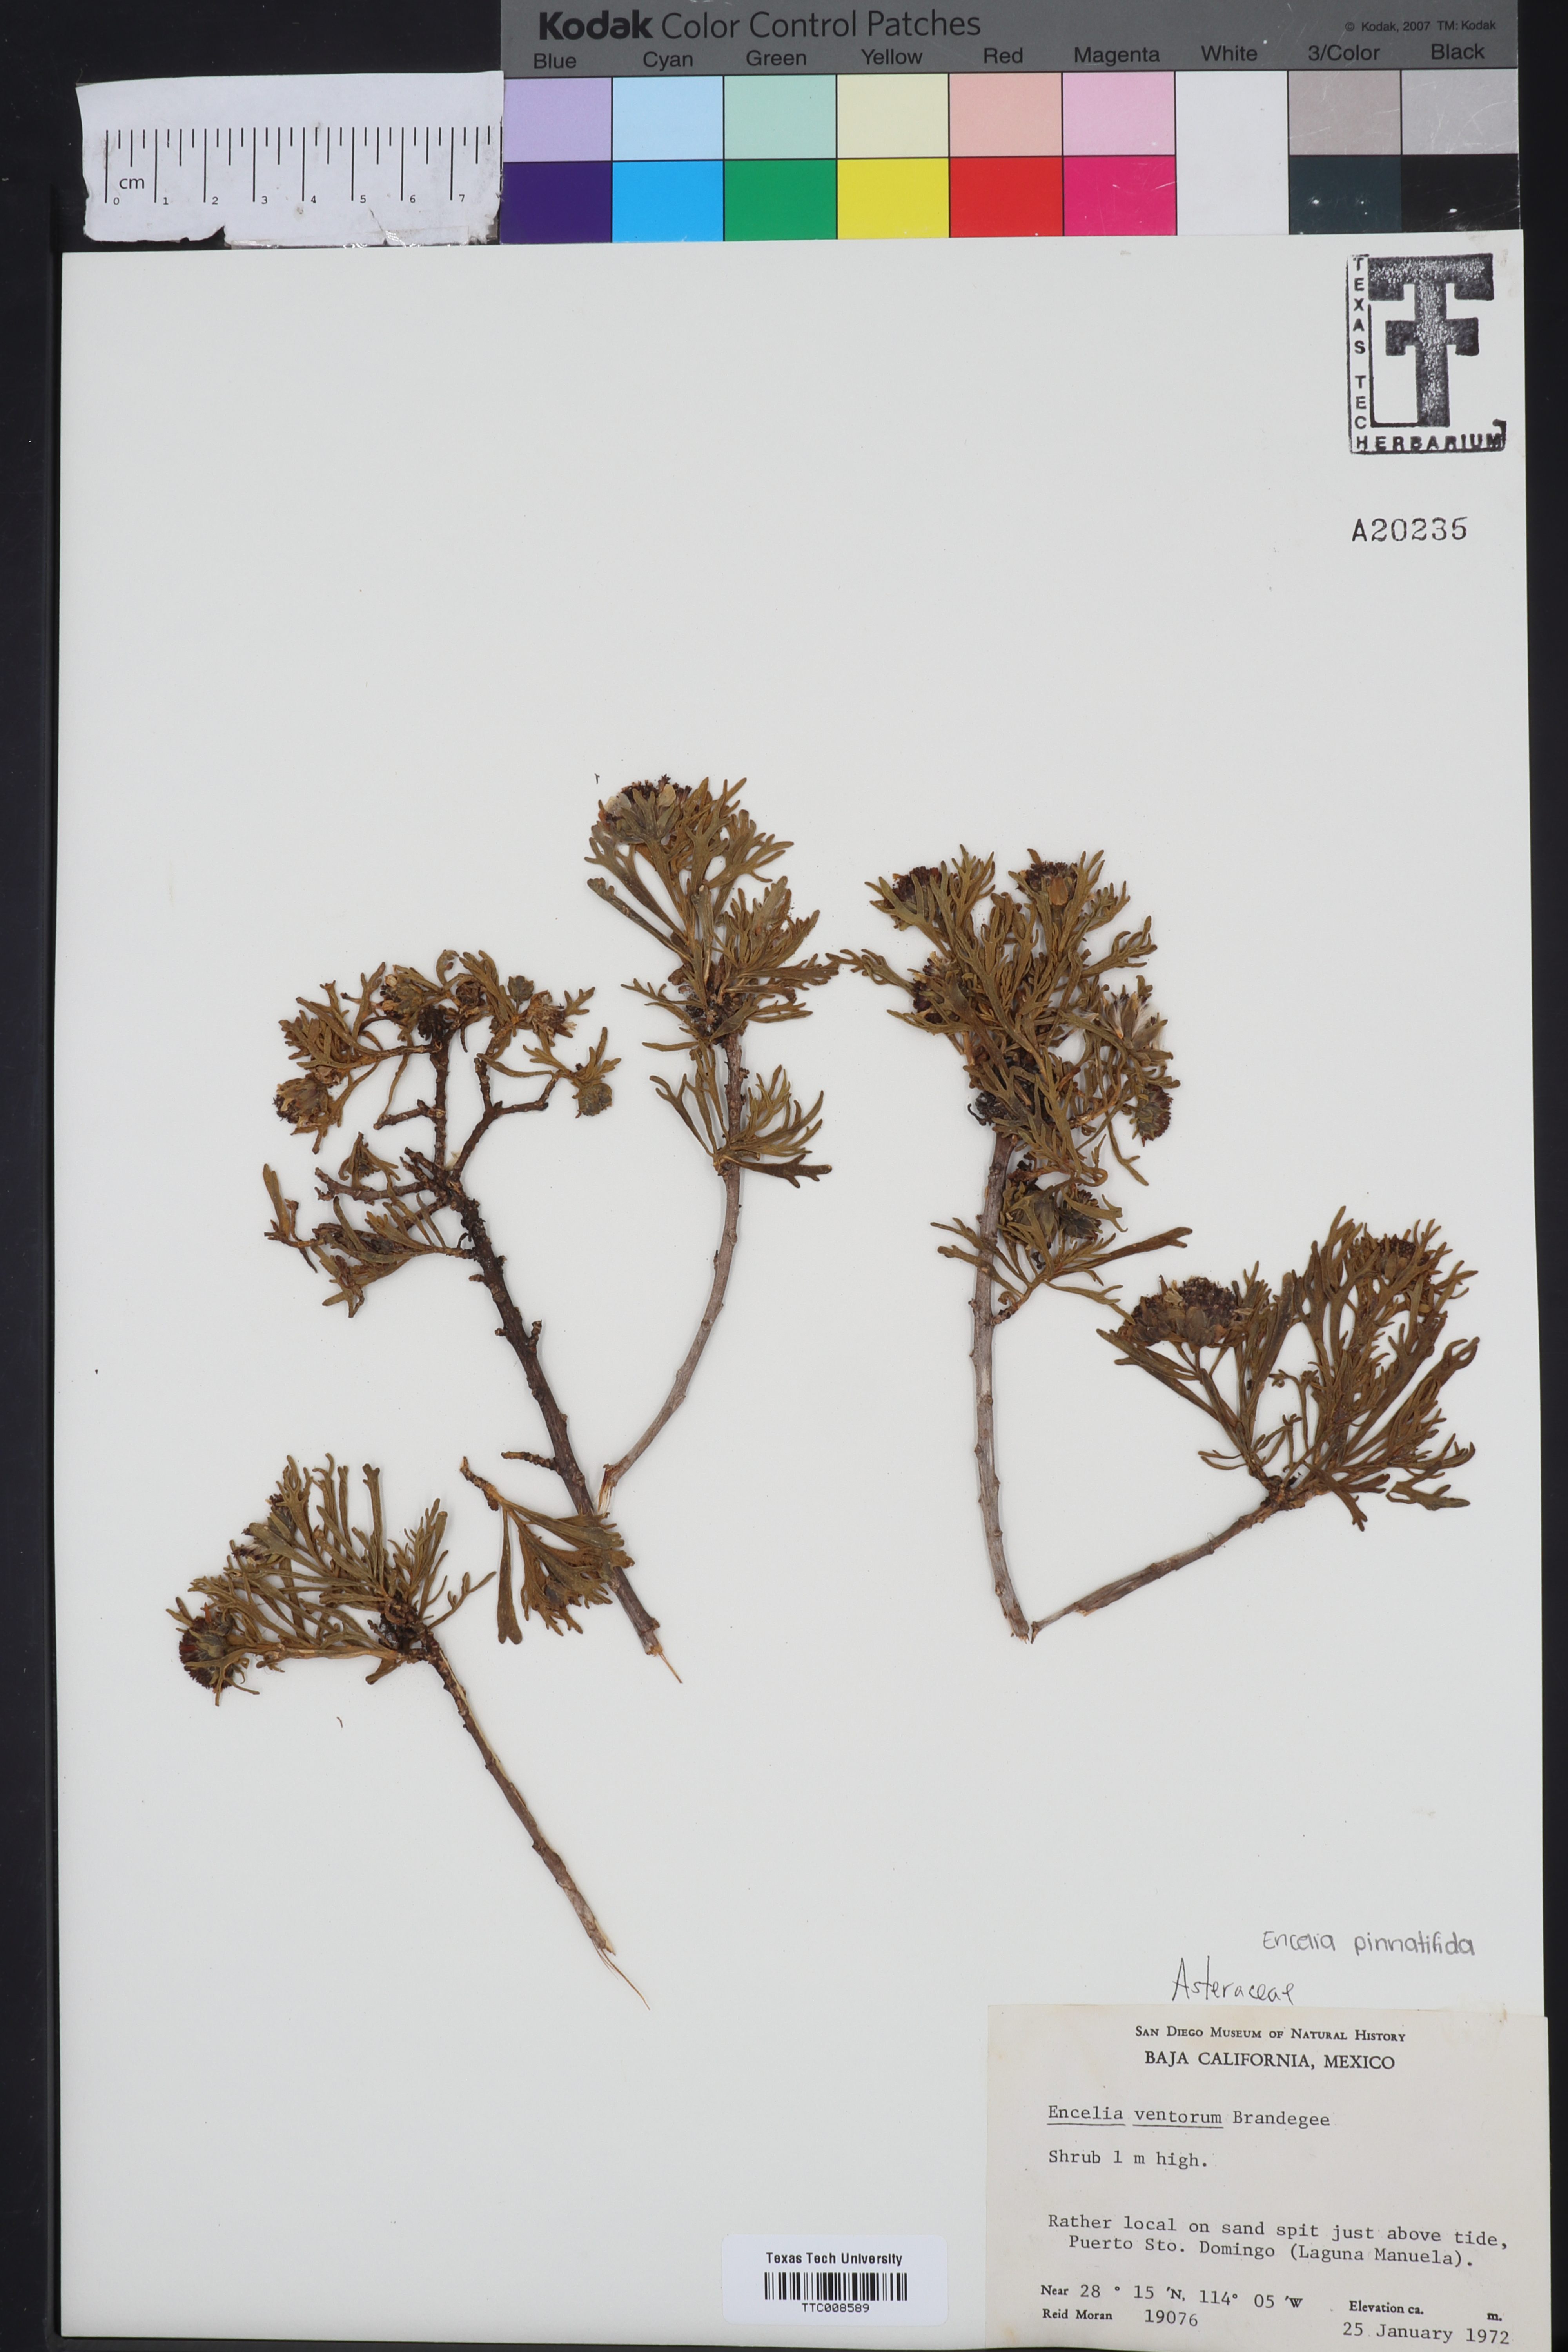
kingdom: Plantae
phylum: Tracheophyta
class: Magnoliopsida
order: Asterales
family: Asteraceae
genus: Encelia
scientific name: Encelia ventorum
